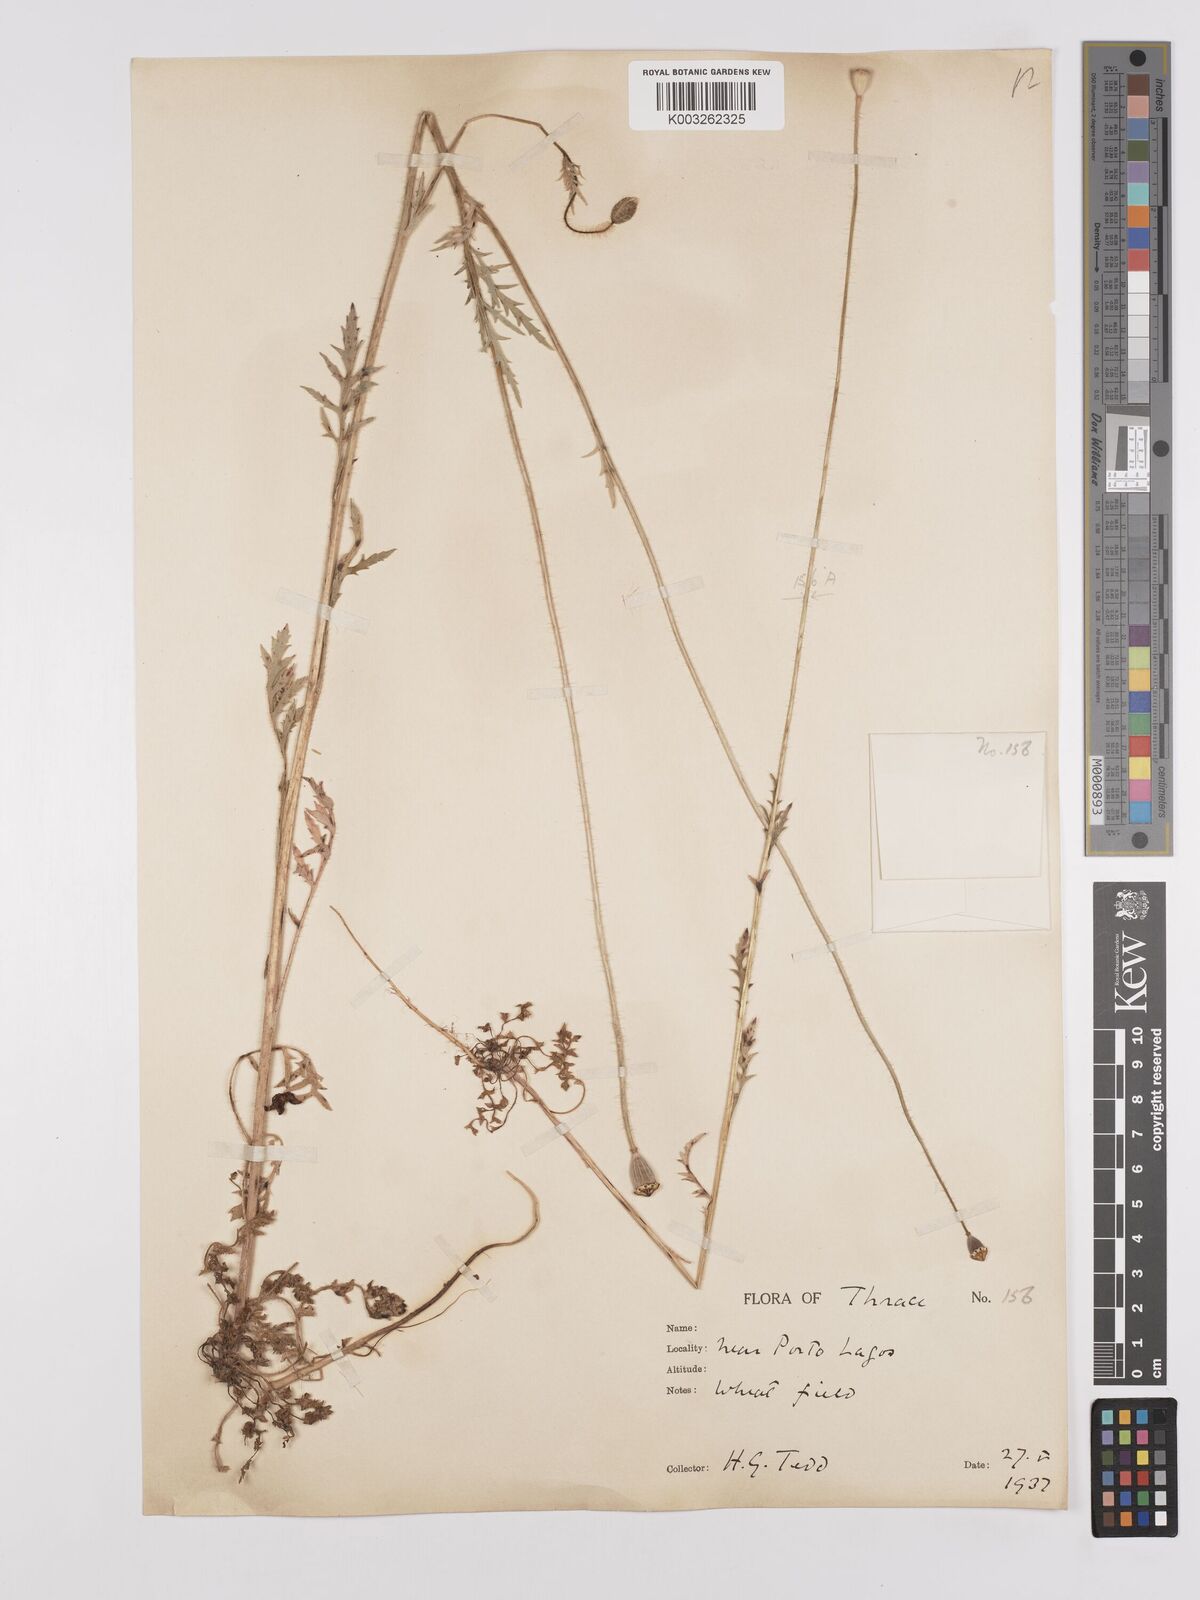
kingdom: Plantae
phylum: Tracheophyta
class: Magnoliopsida
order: Ranunculales
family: Papaveraceae
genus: Papaver
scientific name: Papaver rhoeas
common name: Corn poppy
